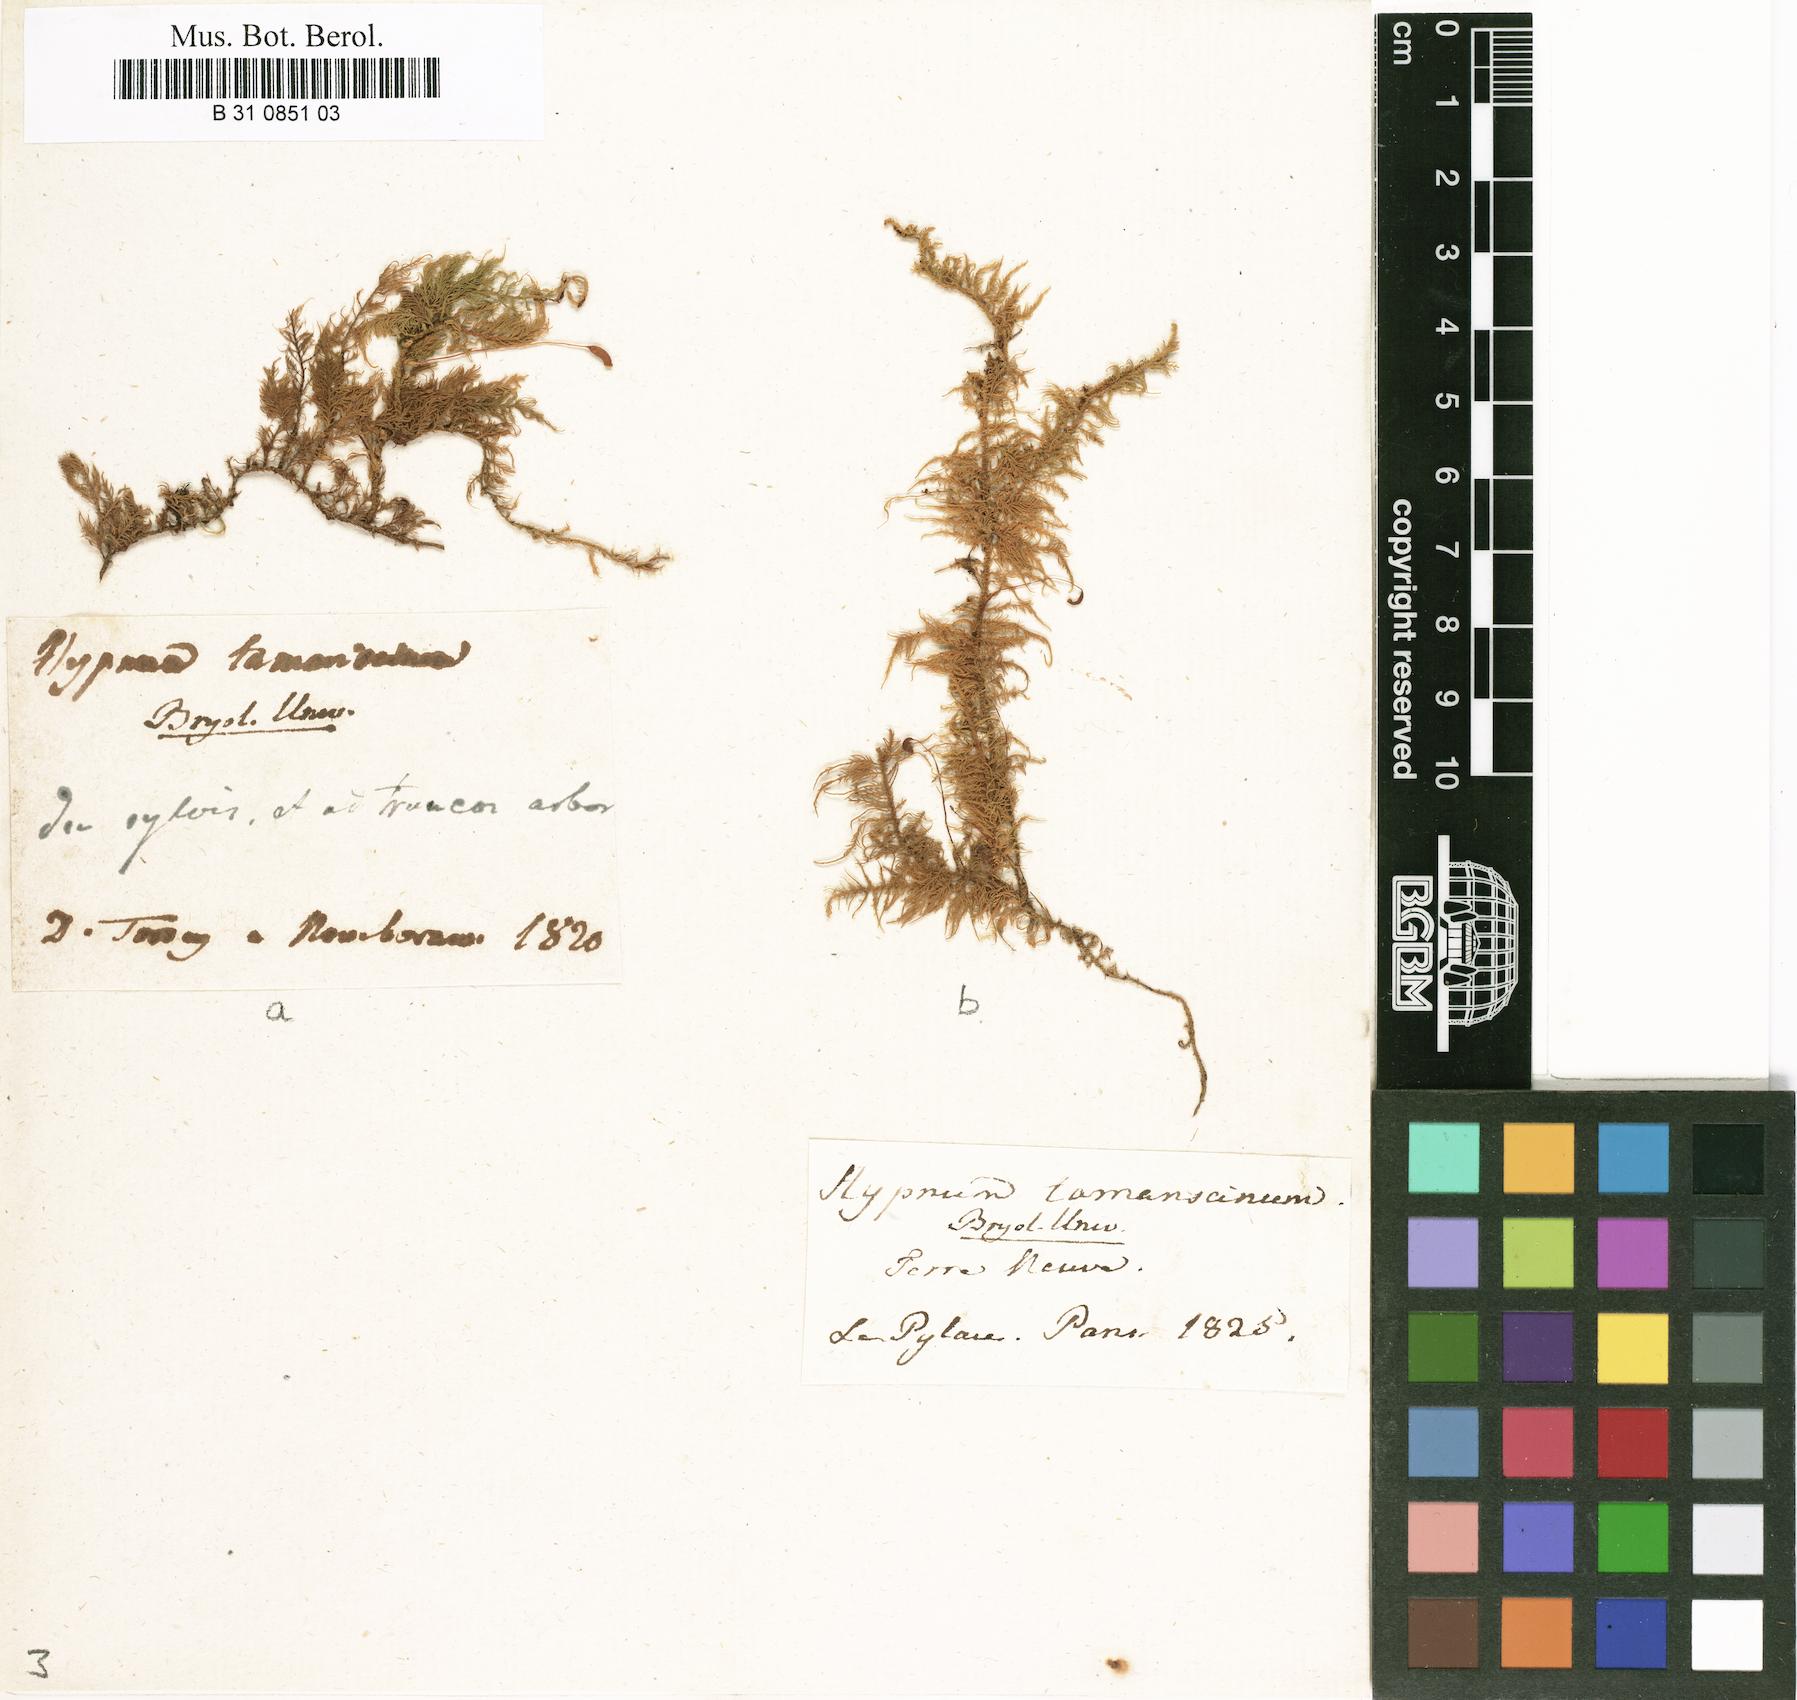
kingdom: Plantae
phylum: Bryophyta
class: Bryopsida
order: Hypnales
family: Thuidiaceae
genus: Thuidium
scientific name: Thuidium tamariscinum
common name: Common tamarisk-moss
